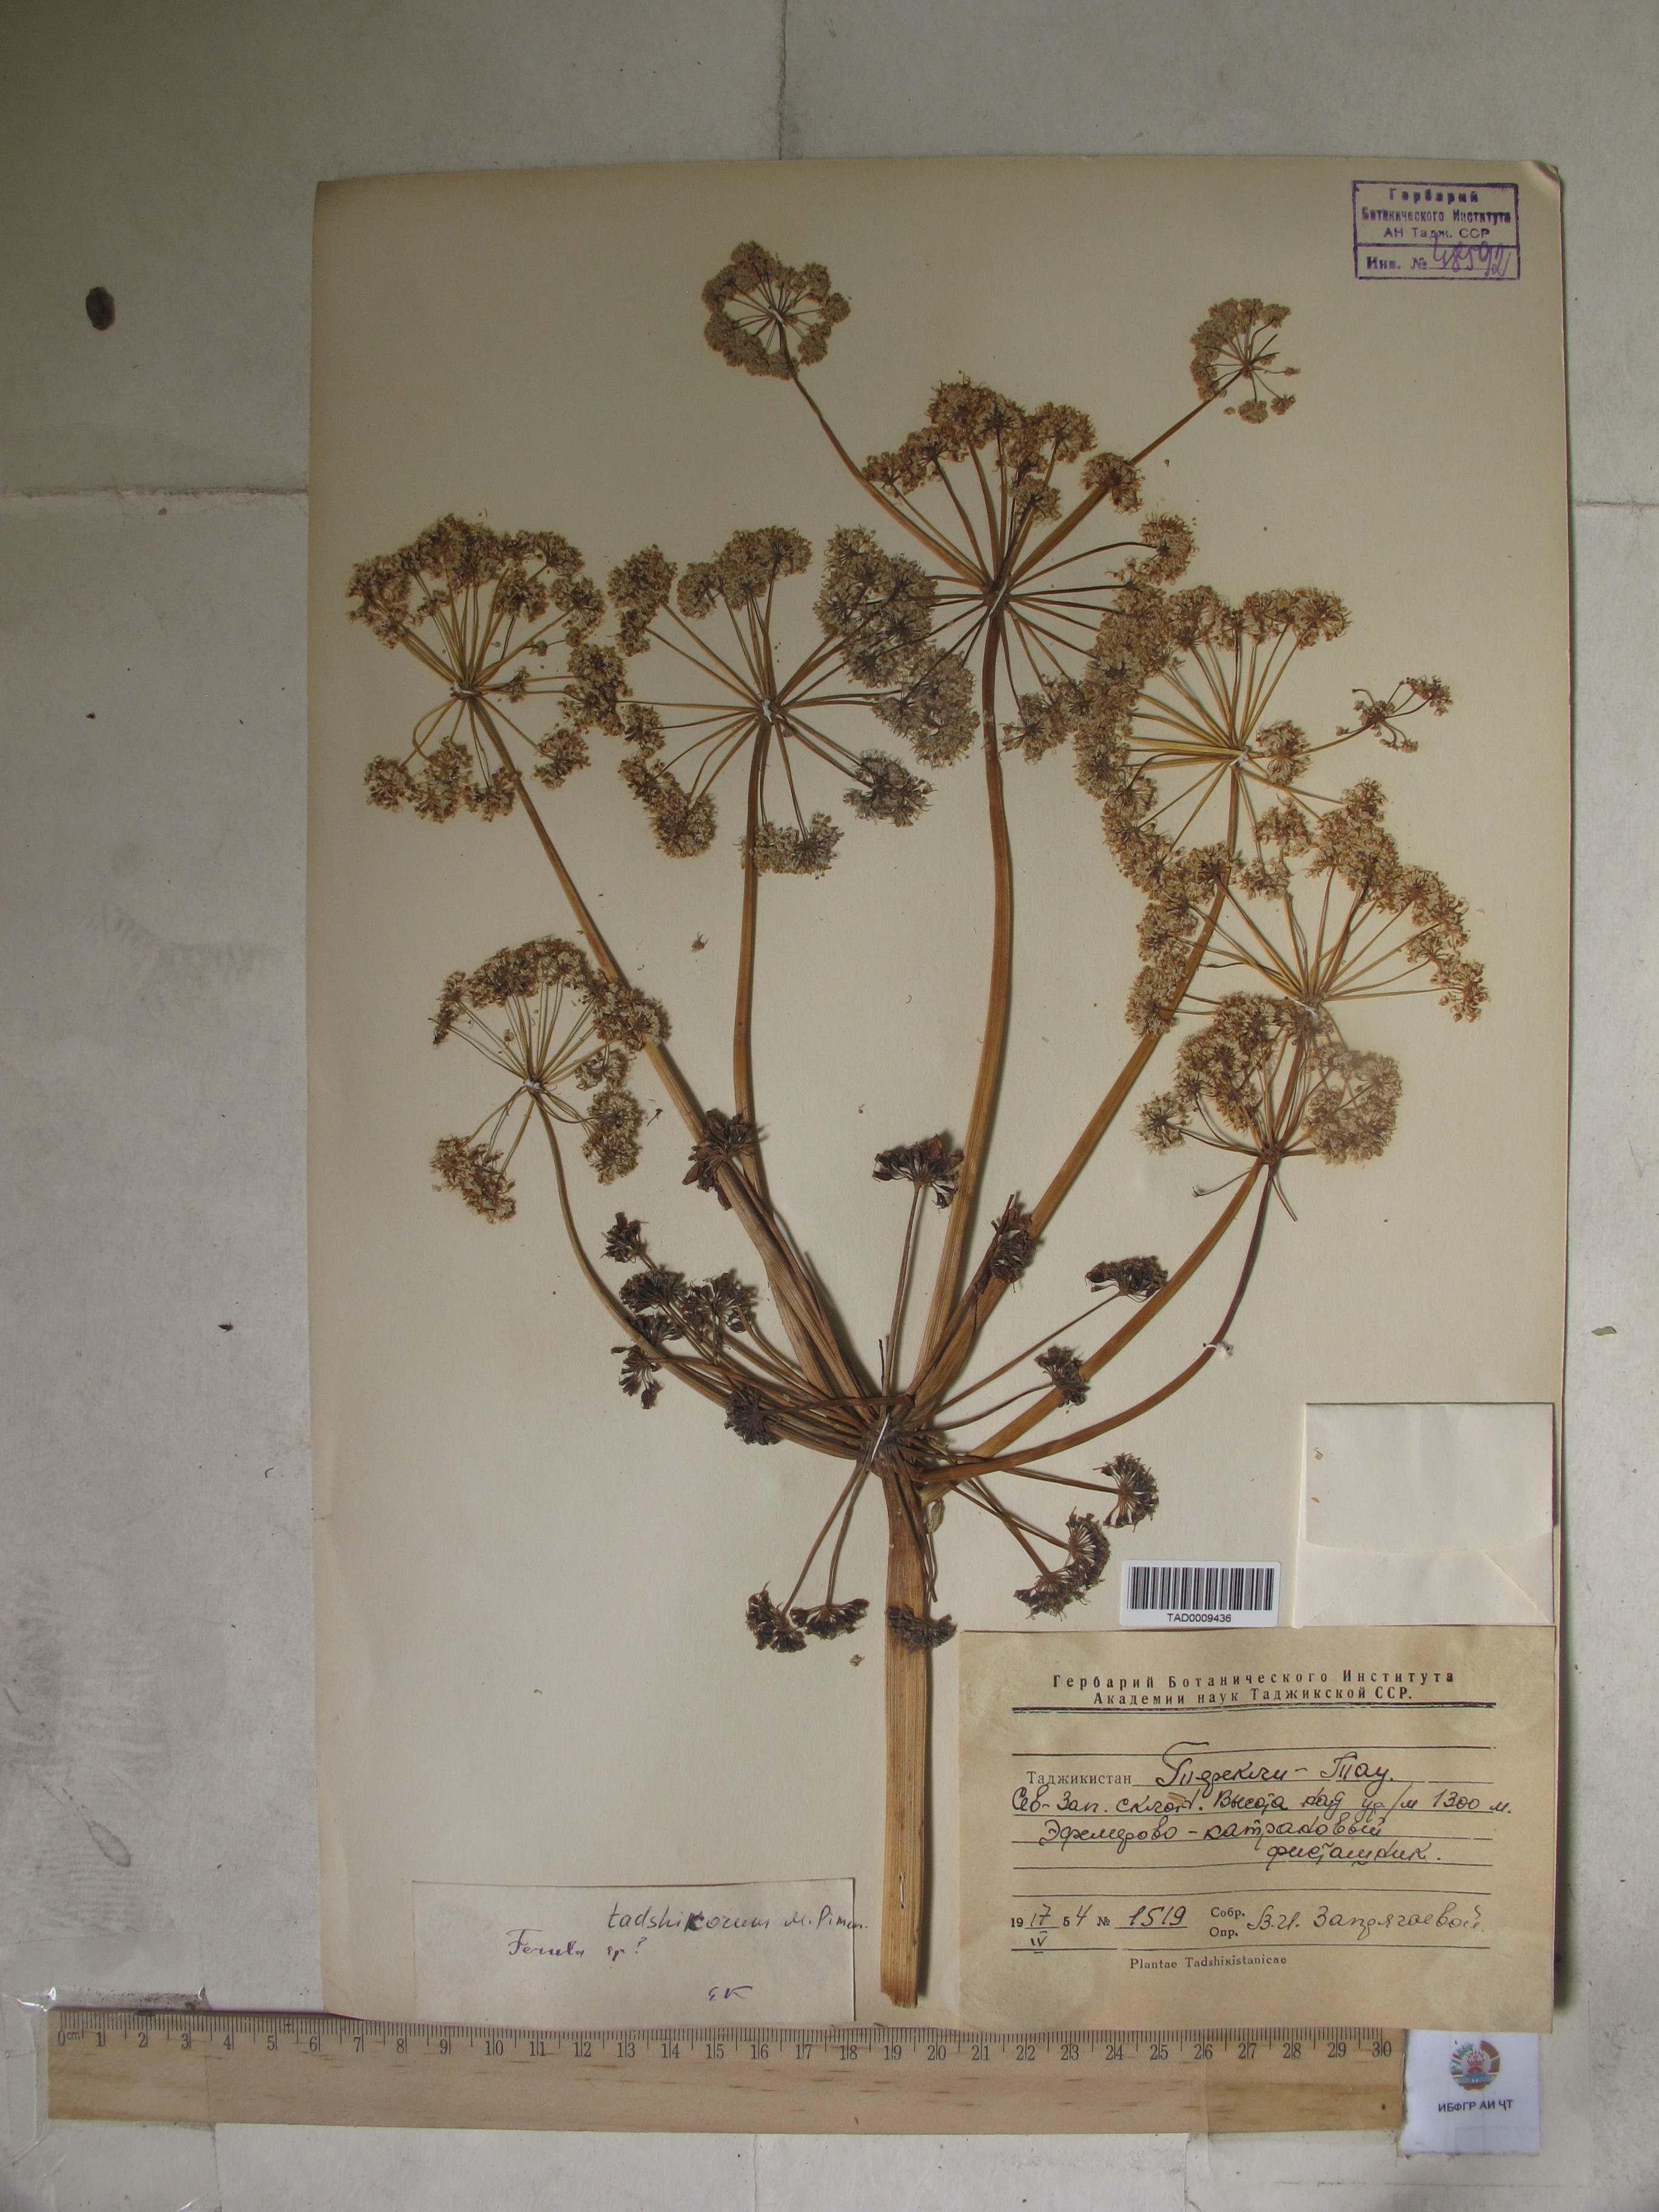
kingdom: Plantae
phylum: Tracheophyta
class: Magnoliopsida
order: Apiales
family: Apiaceae
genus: Ferula
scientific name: Ferula tadshikorum
